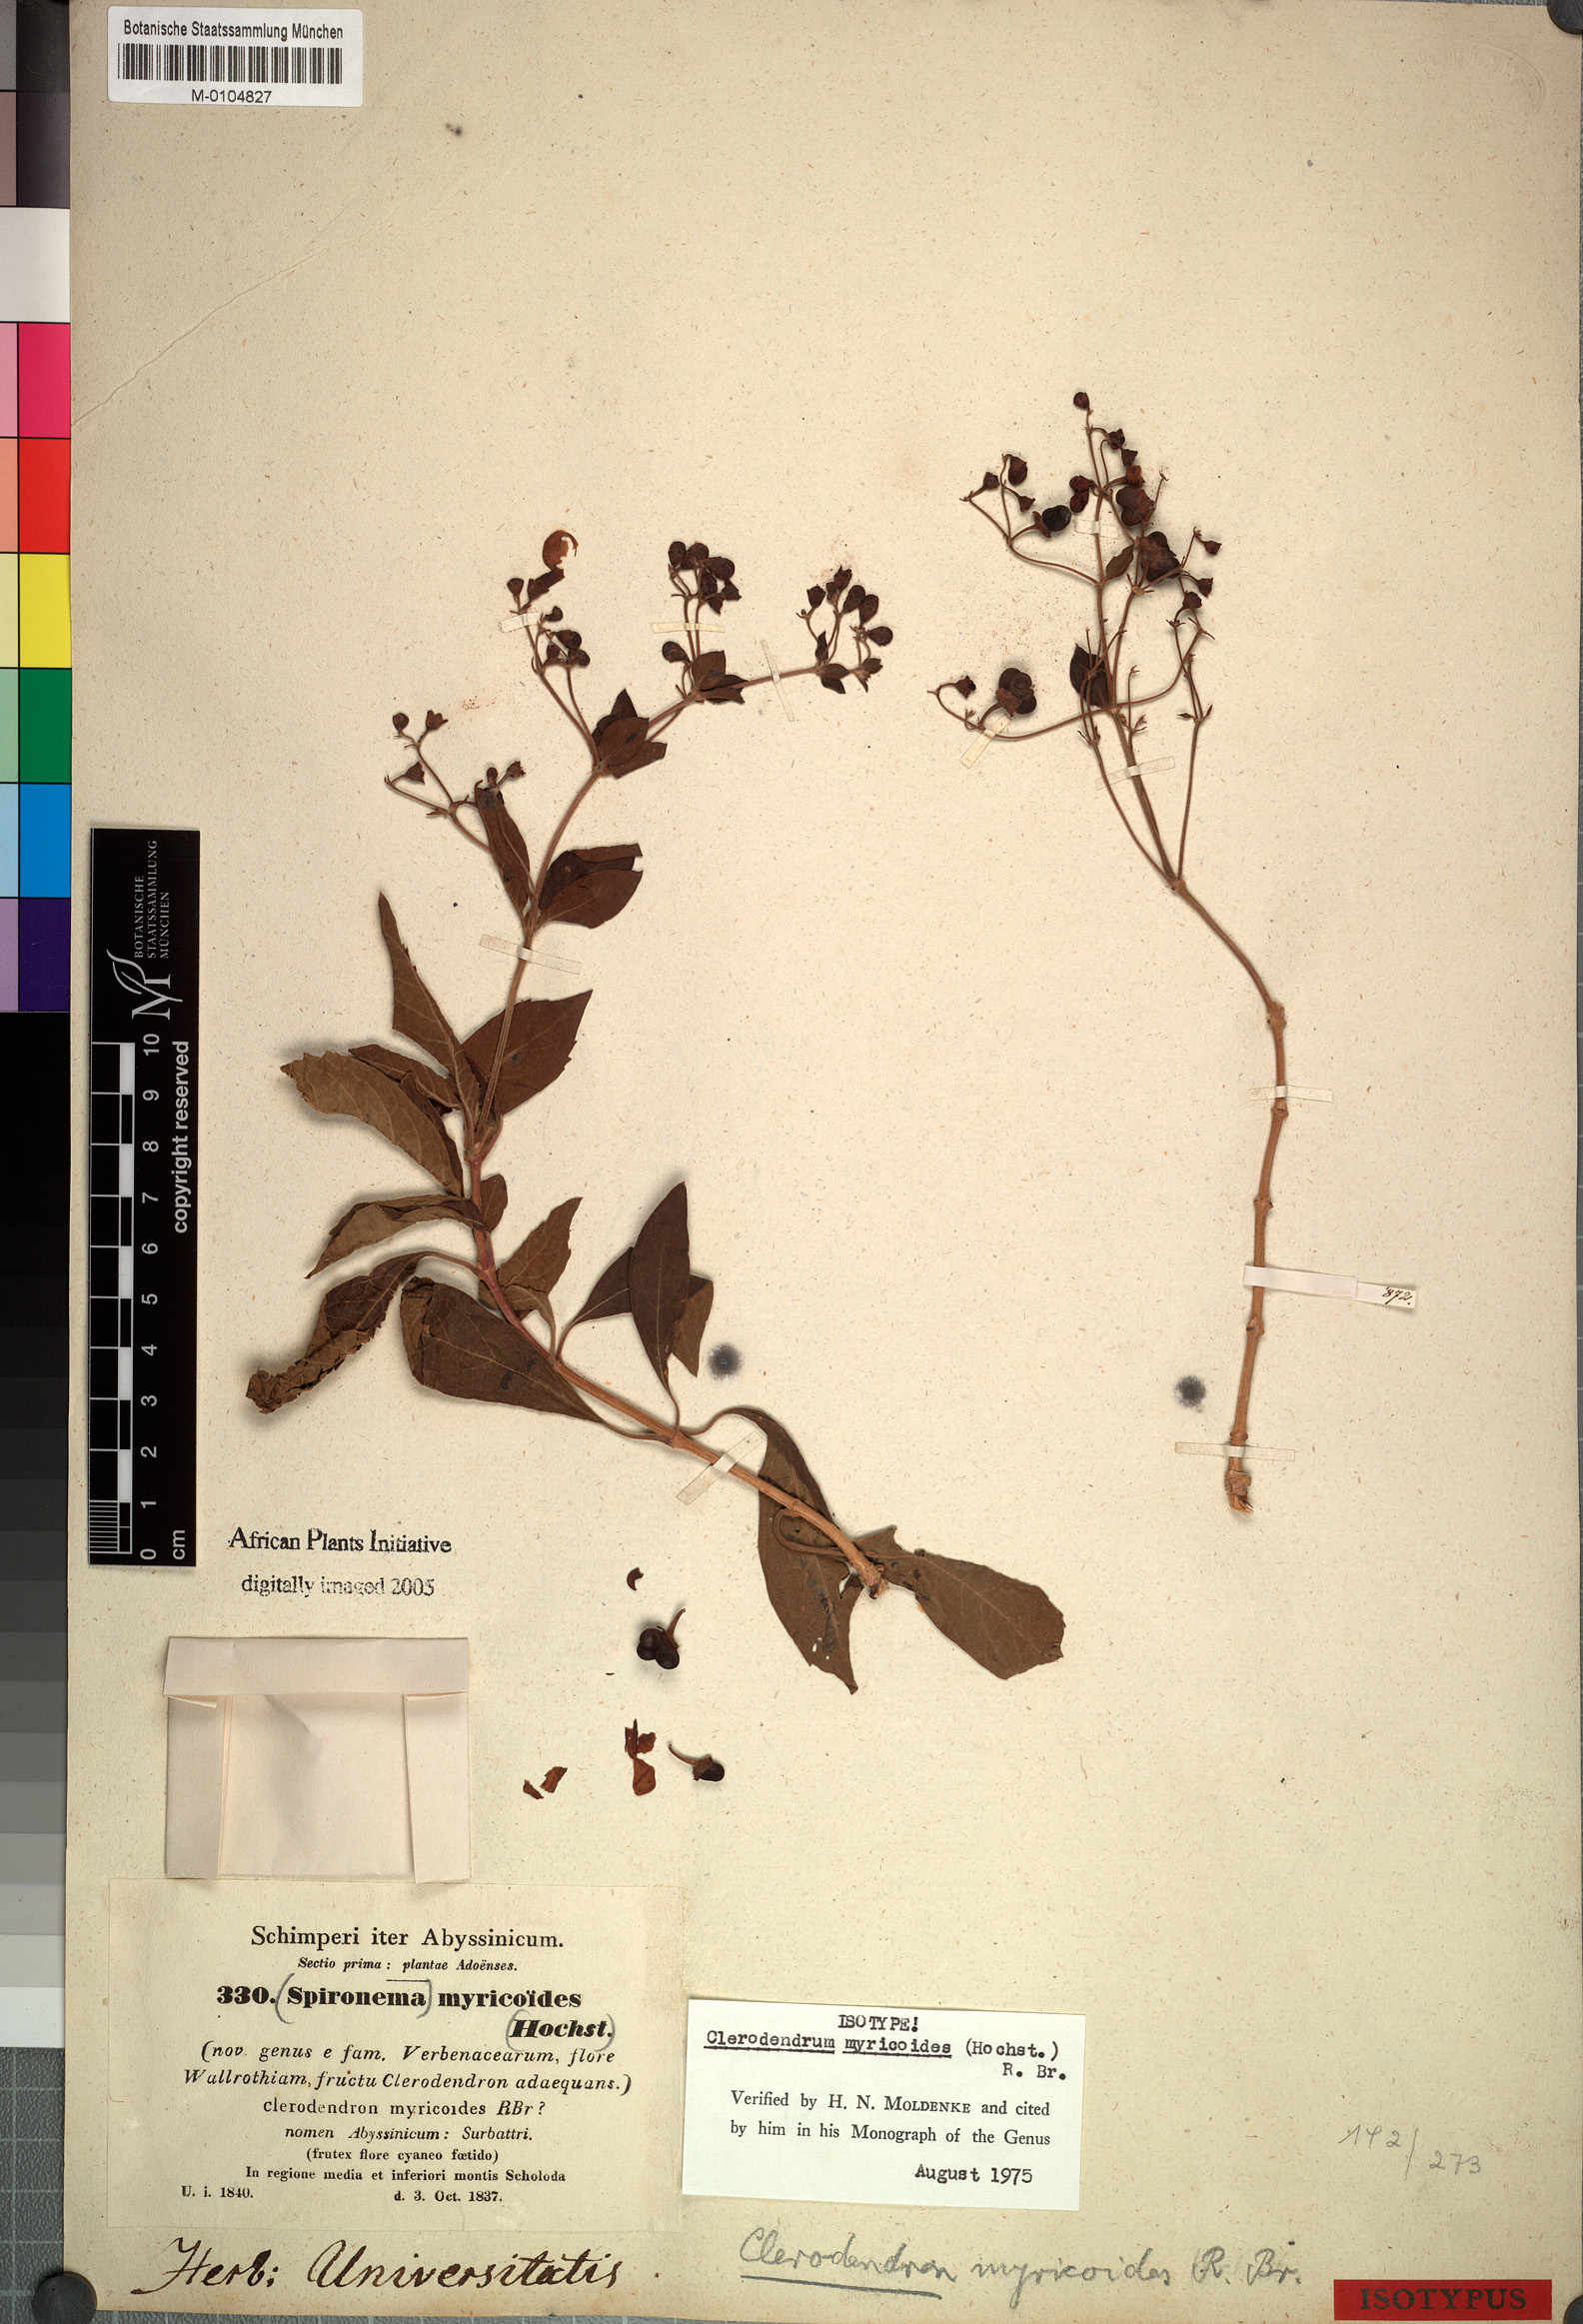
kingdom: Plantae
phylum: Tracheophyta
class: Magnoliopsida
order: Lamiales
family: Lamiaceae
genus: Clerodendrum
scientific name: Clerodendrum myricoides
